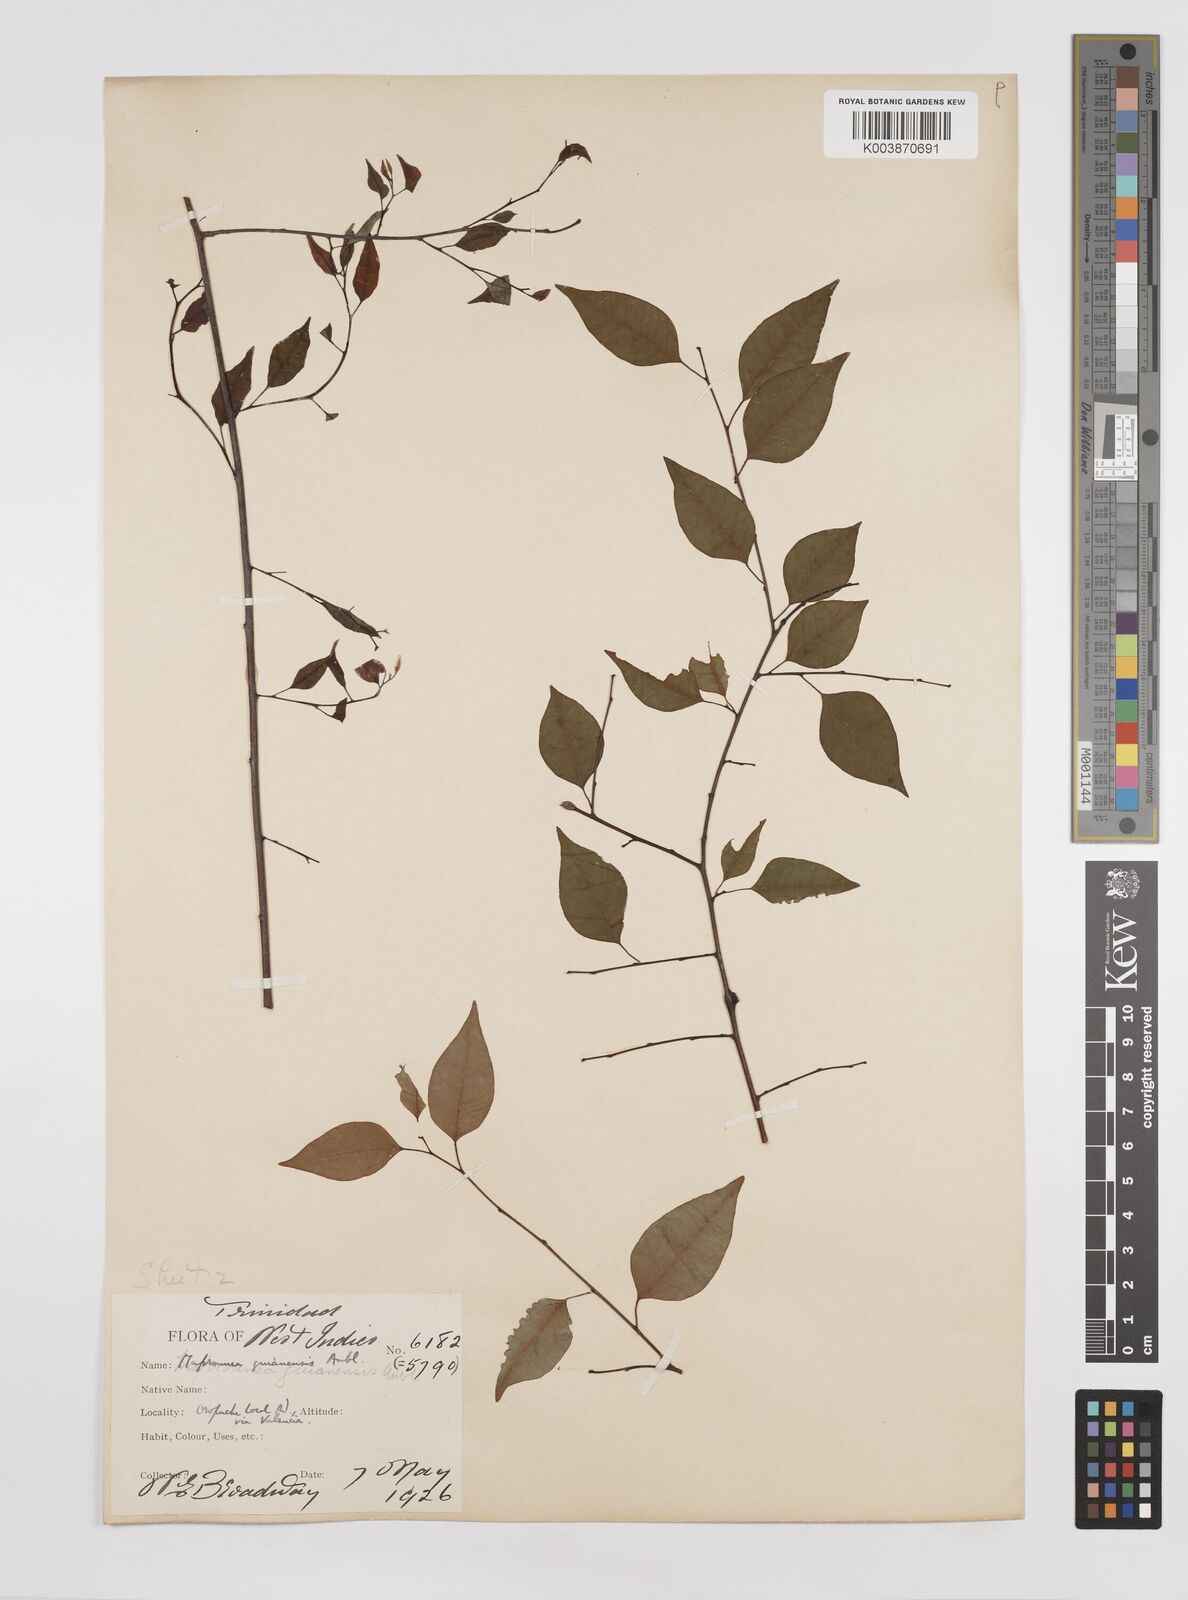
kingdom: Plantae
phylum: Tracheophyta
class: Magnoliopsida
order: Malpighiales
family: Euphorbiaceae
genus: Maprounea
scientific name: Maprounea guianensis
